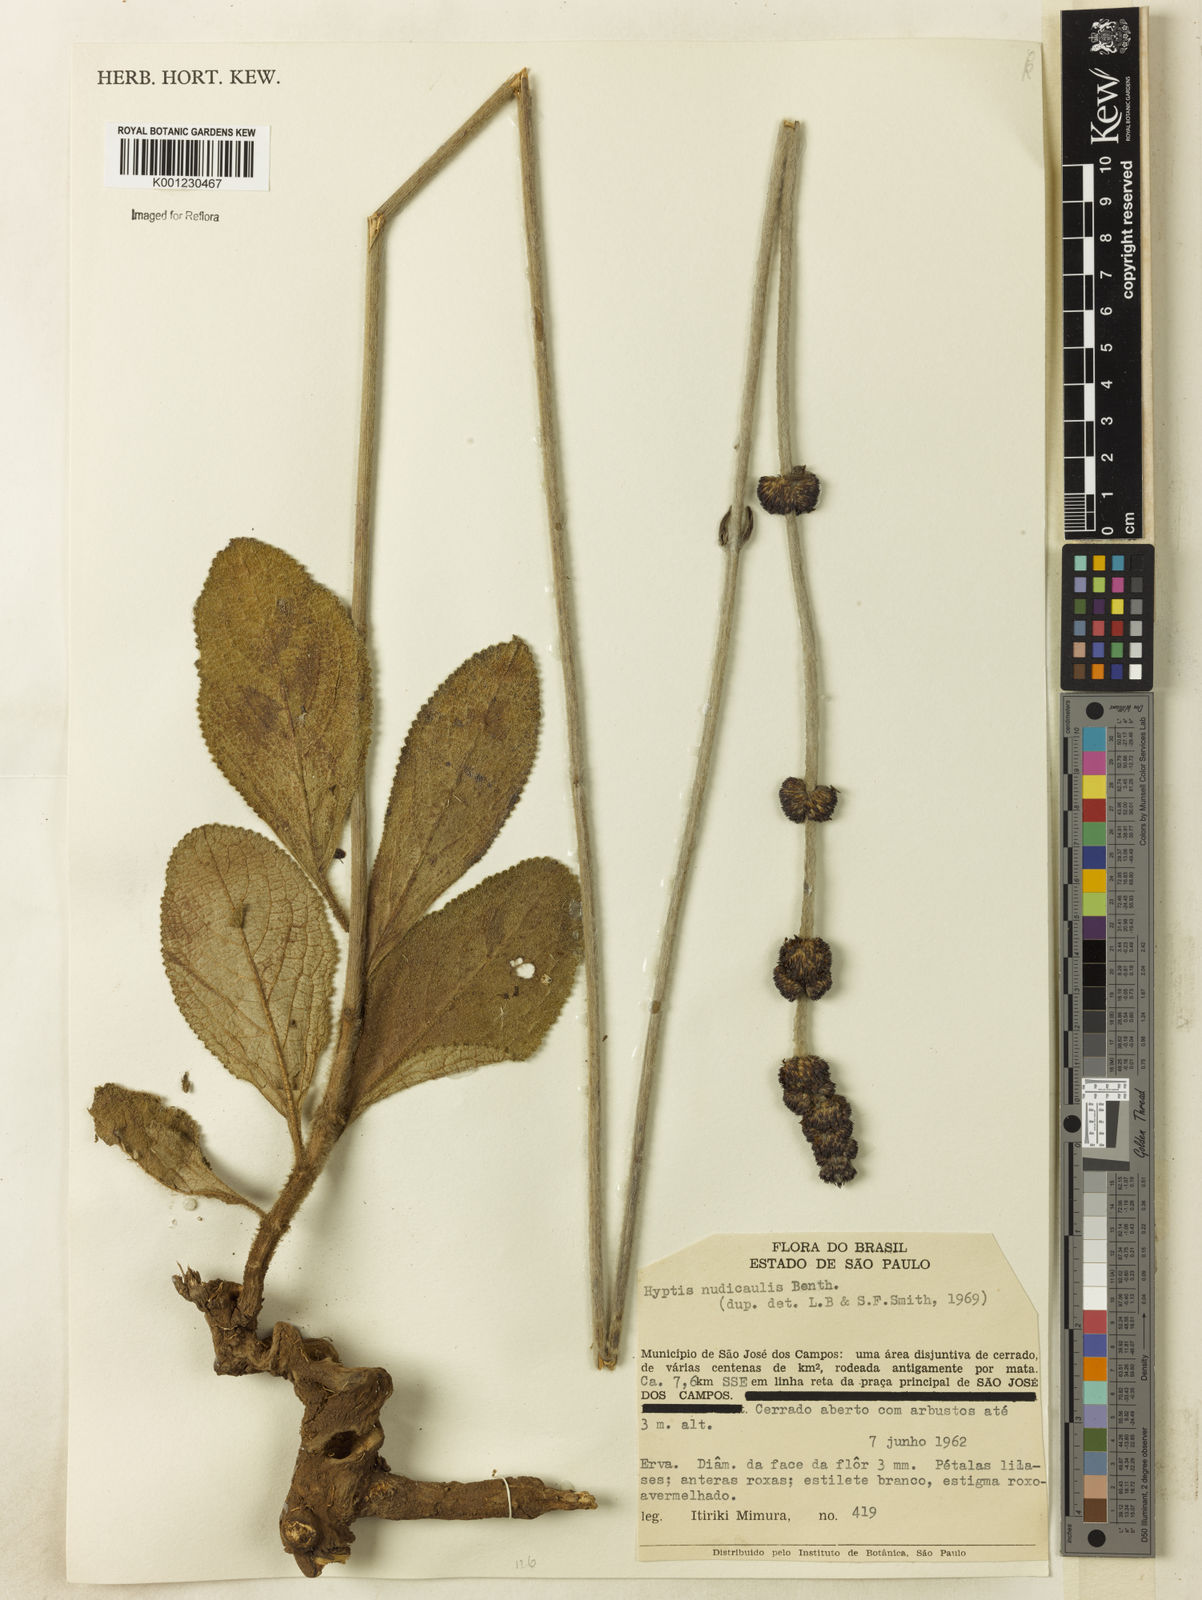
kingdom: Plantae
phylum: Tracheophyta
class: Magnoliopsida
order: Lamiales
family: Lamiaceae
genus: Hyptis
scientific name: Hyptis nudicaulis
